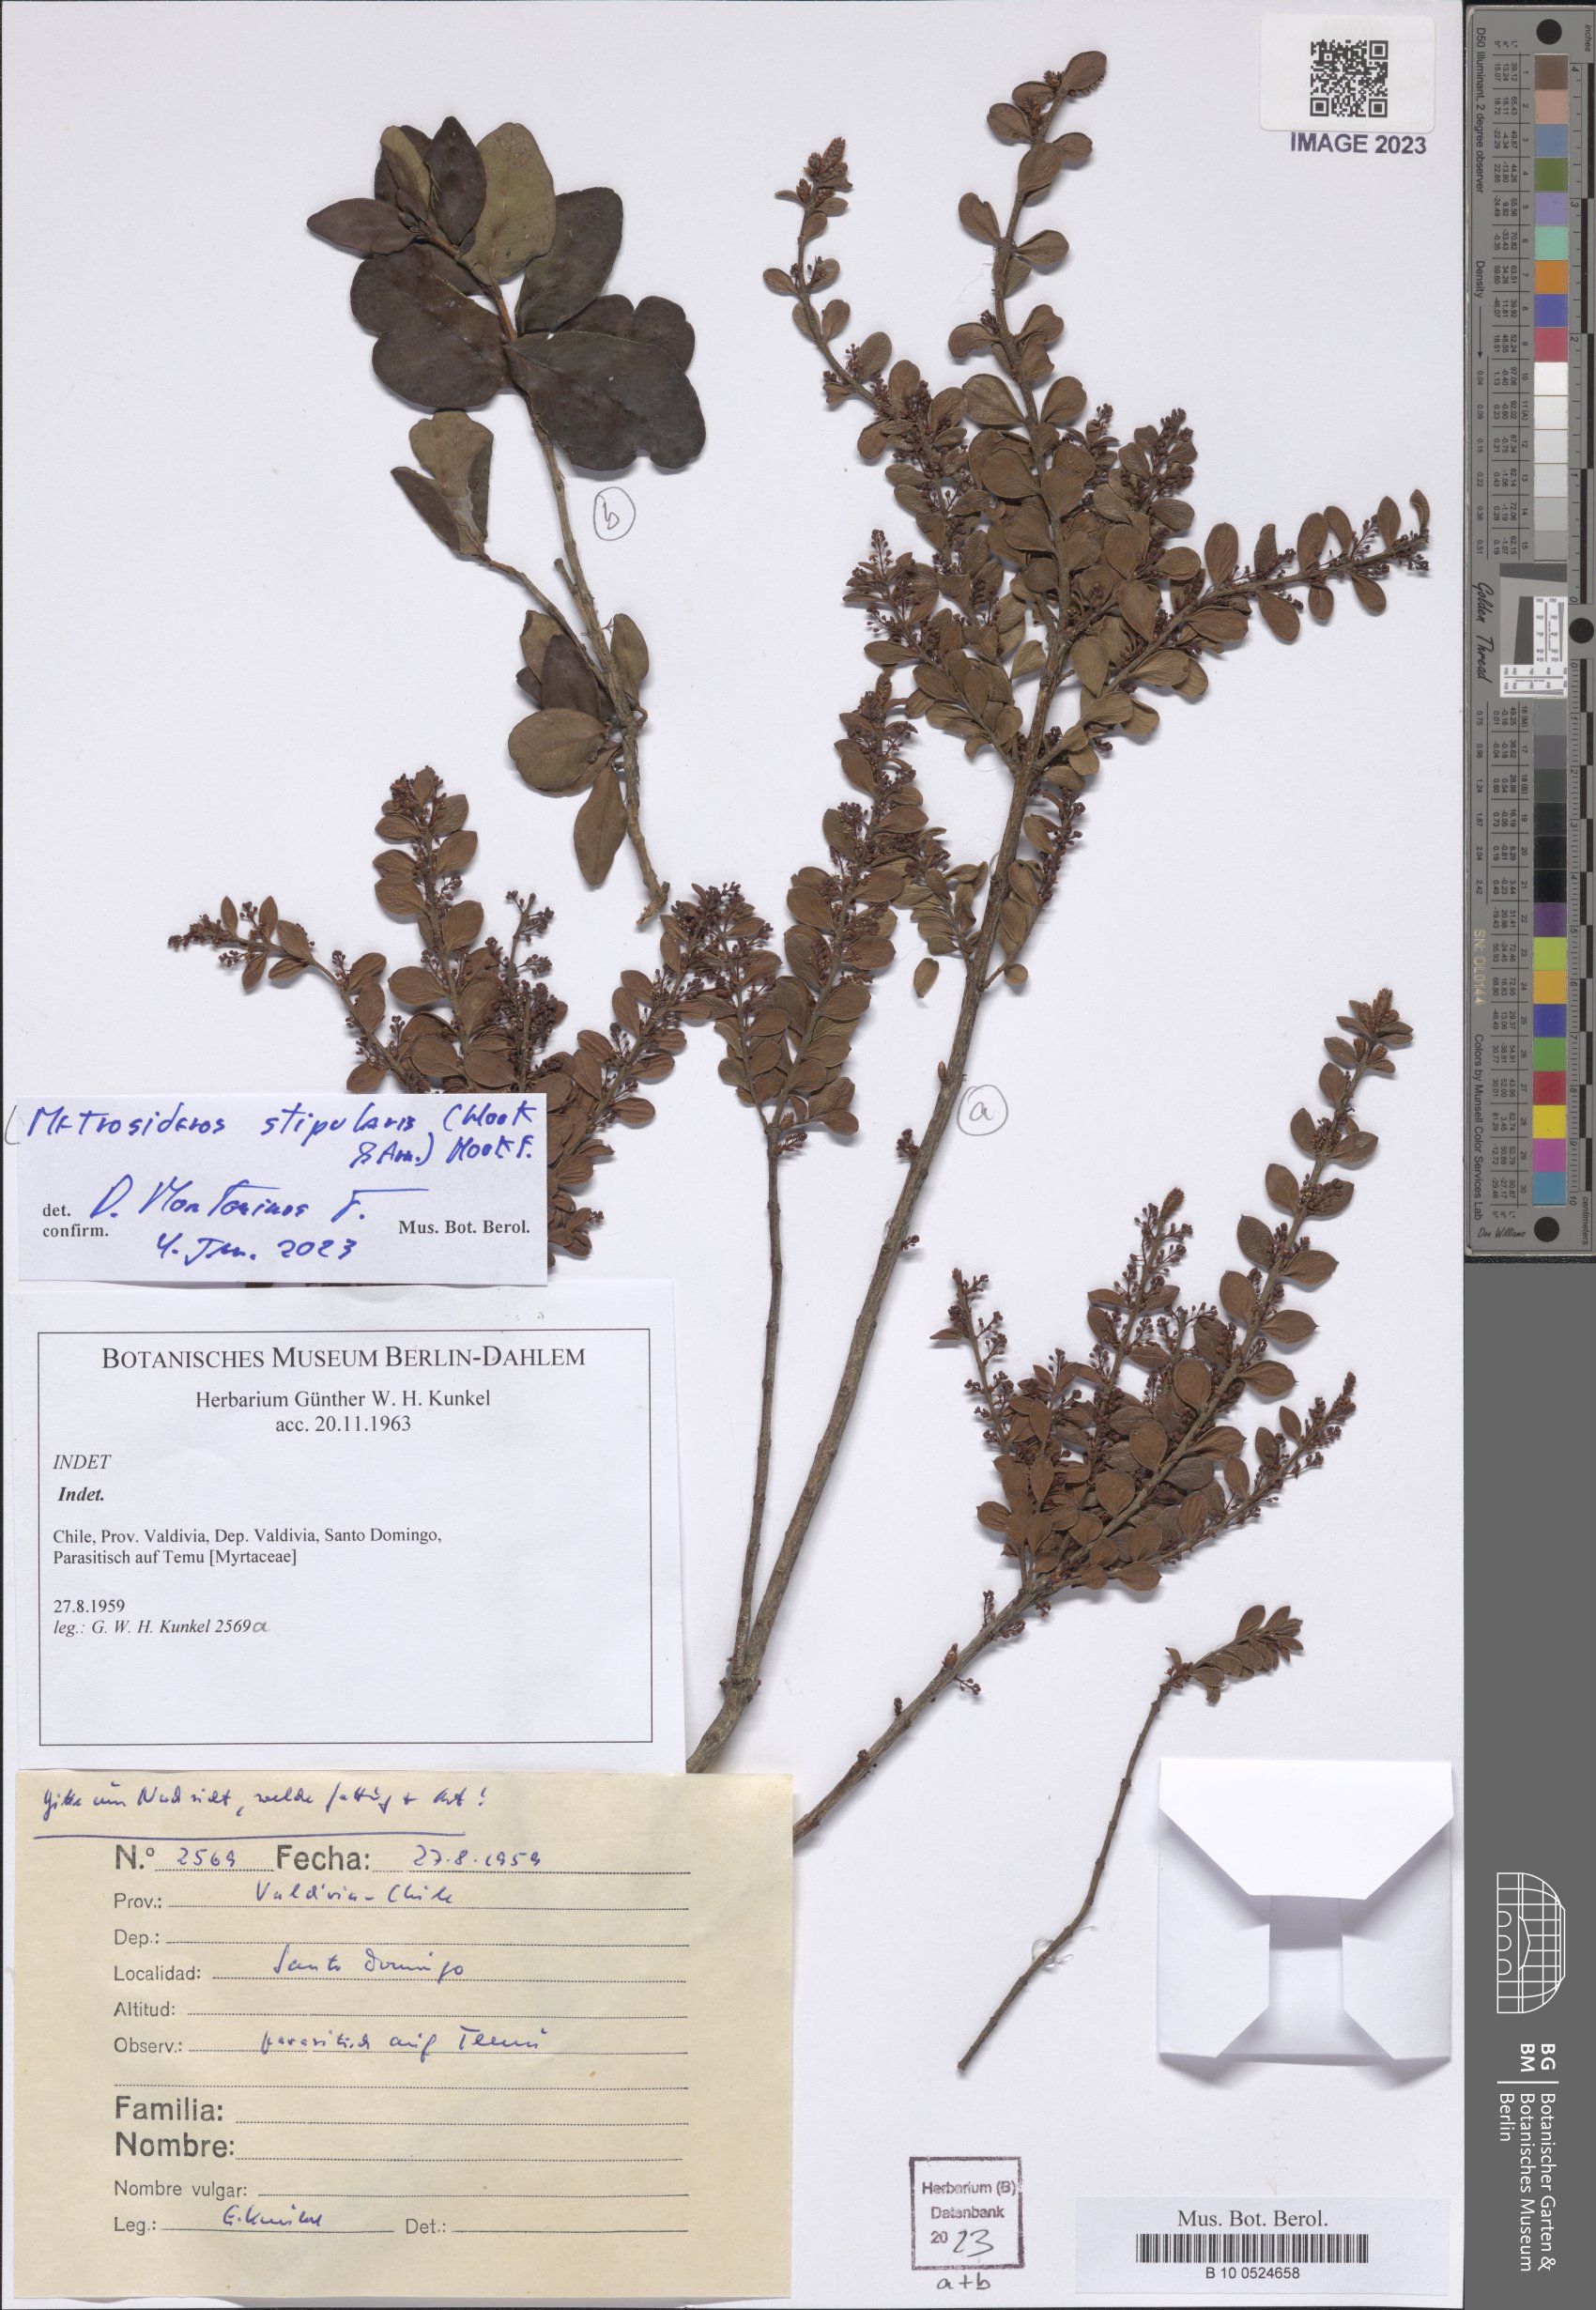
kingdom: Plantae
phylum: Tracheophyta
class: Magnoliopsida
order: Myrtales
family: Myrtaceae
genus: Tepualia
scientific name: Tepualia stipularis
